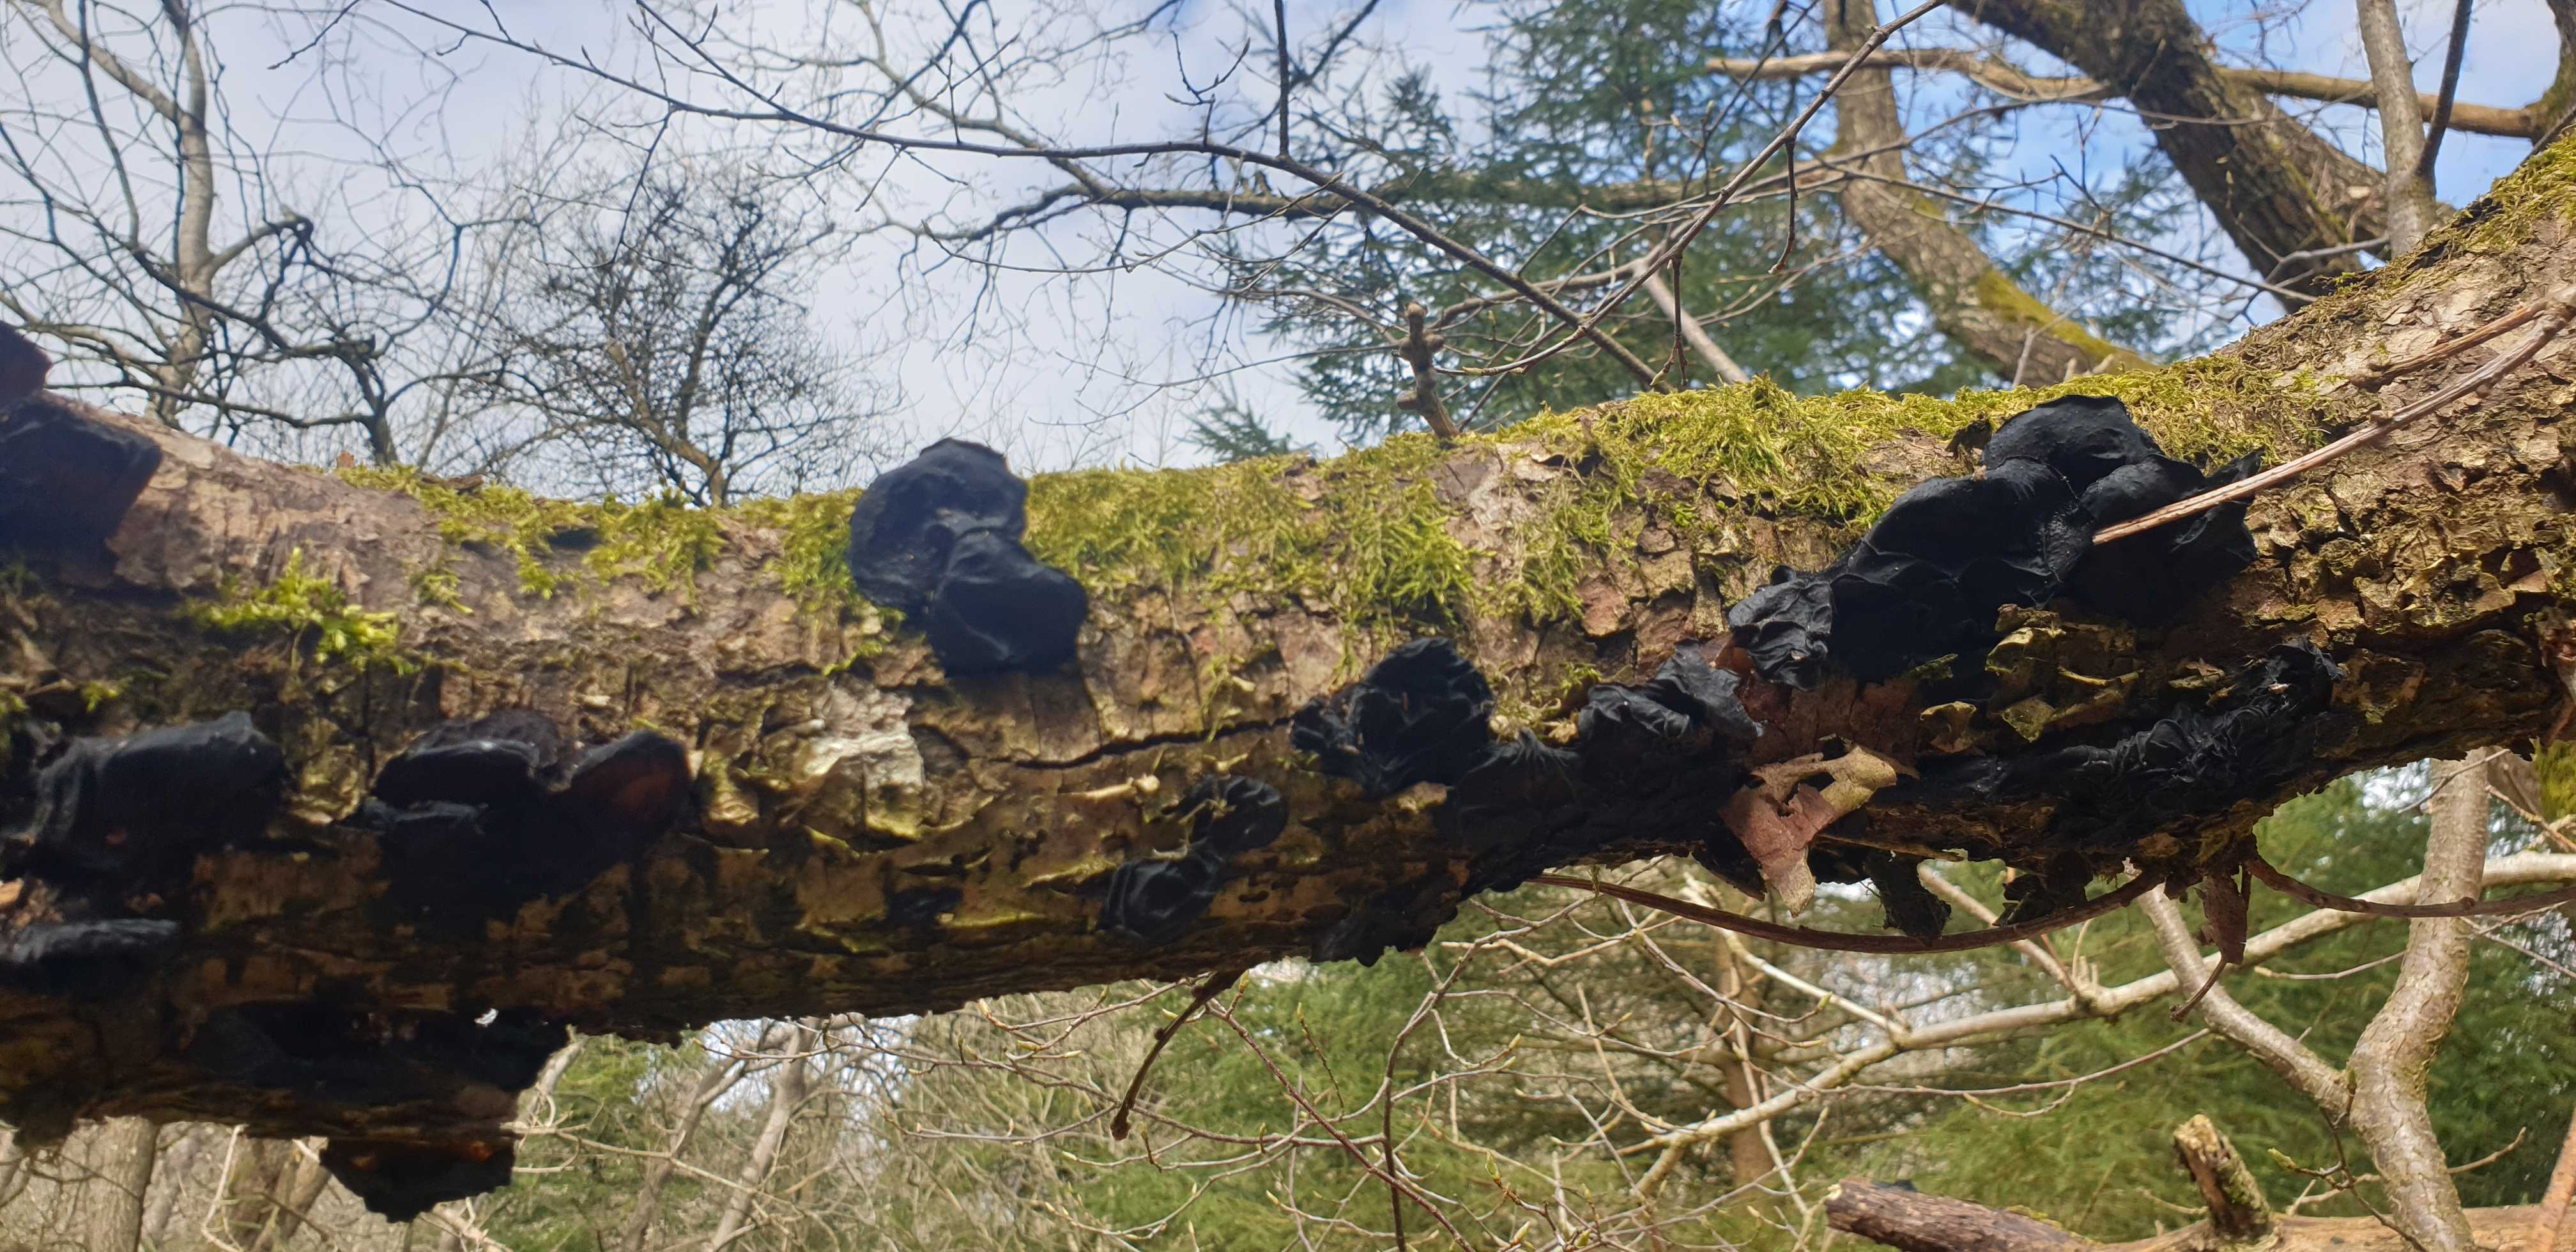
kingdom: Fungi
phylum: Basidiomycota
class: Agaricomycetes
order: Auriculariales
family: Auriculariaceae
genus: Exidia
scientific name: Exidia glandulosa
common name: ege-bævretop
